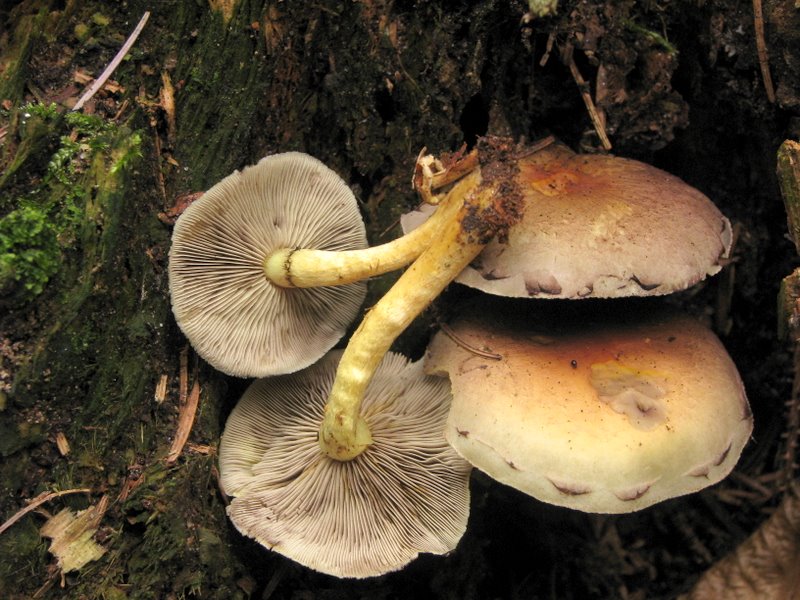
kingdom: Fungi
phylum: Basidiomycota
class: Agaricomycetes
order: Agaricales
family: Strophariaceae
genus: Hypholoma
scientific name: Hypholoma capnoides
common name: gran-svovlhat
